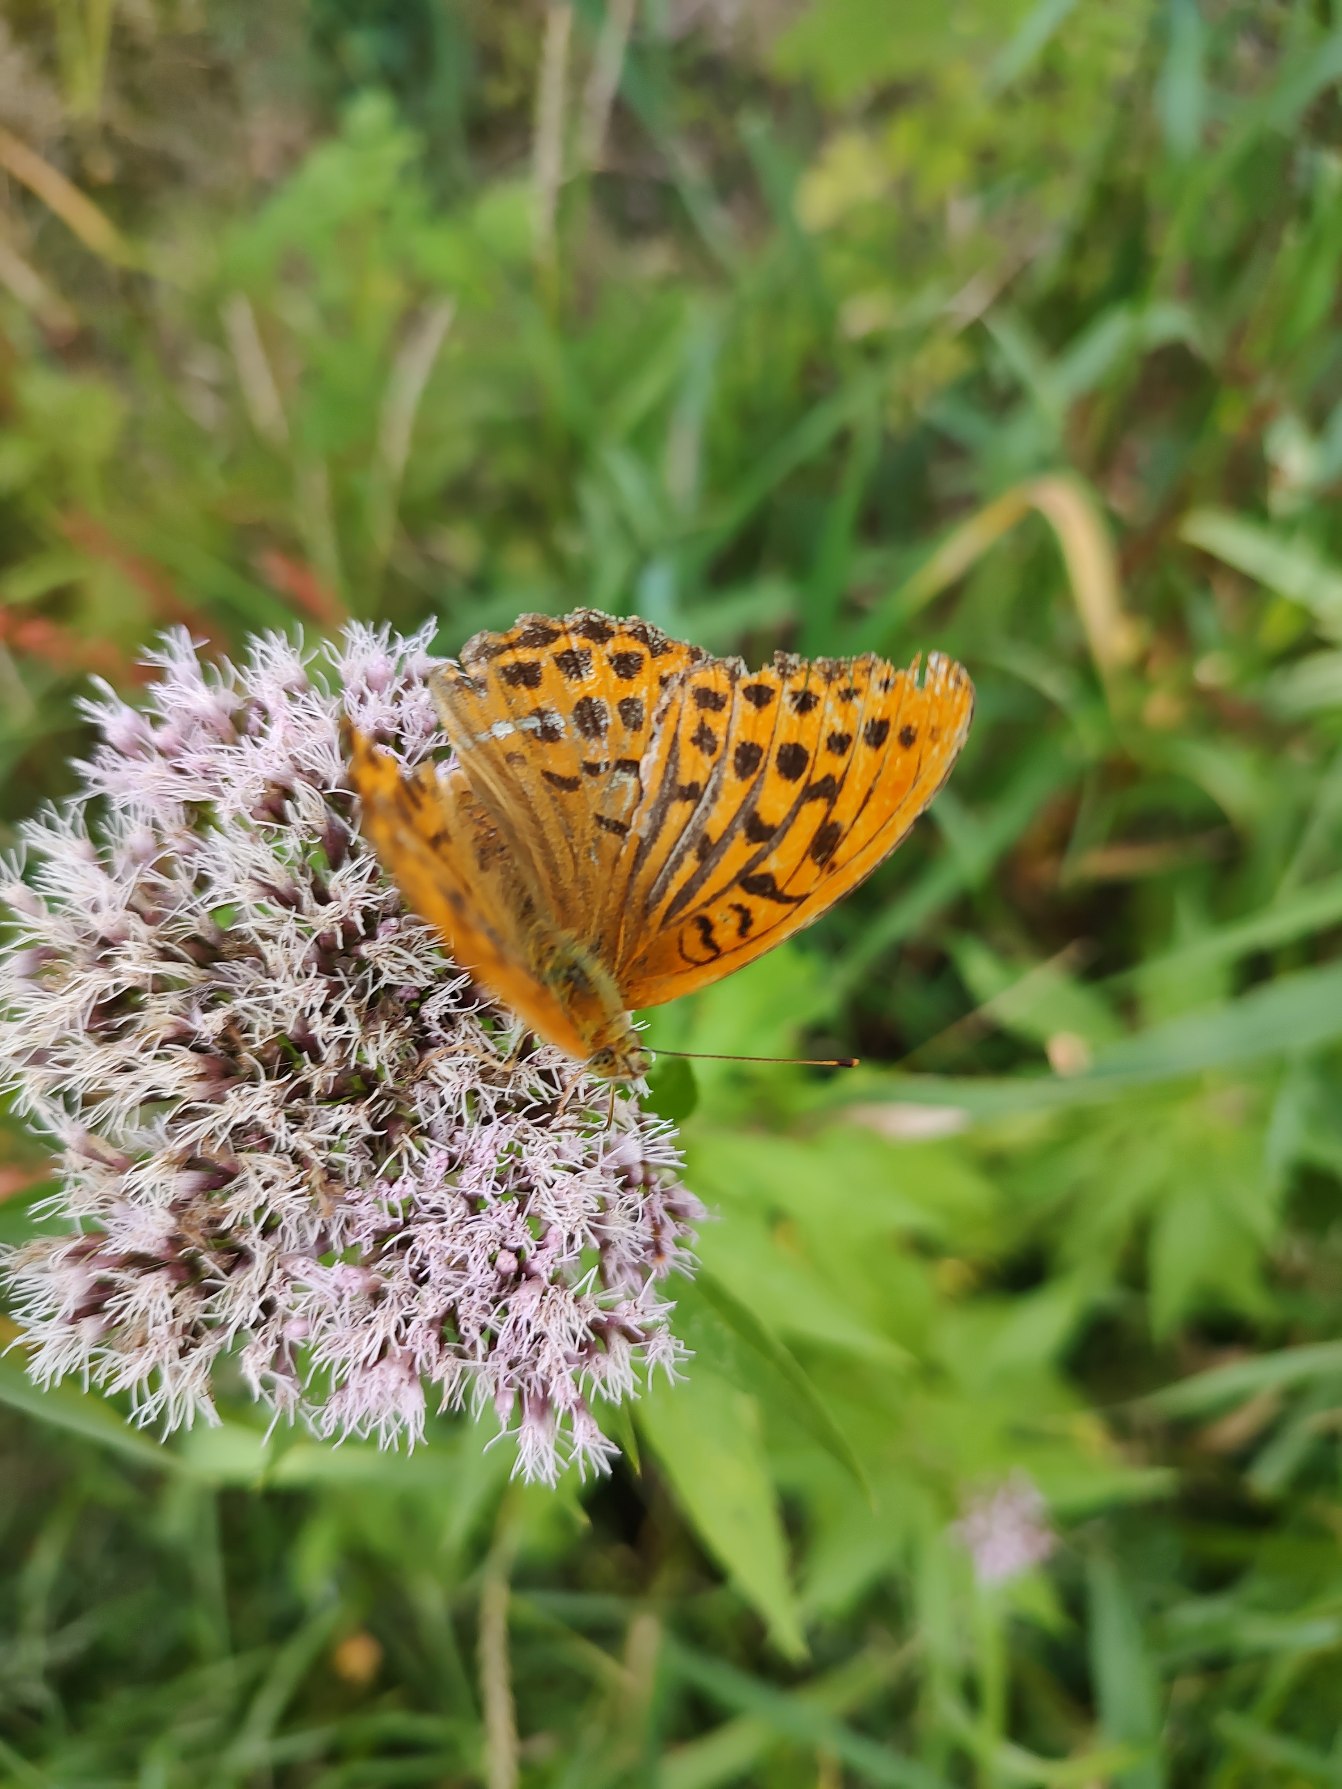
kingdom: Animalia
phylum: Arthropoda
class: Insecta
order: Lepidoptera
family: Nymphalidae
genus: Argynnis
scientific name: Argynnis paphia
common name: Kejserkåbe
